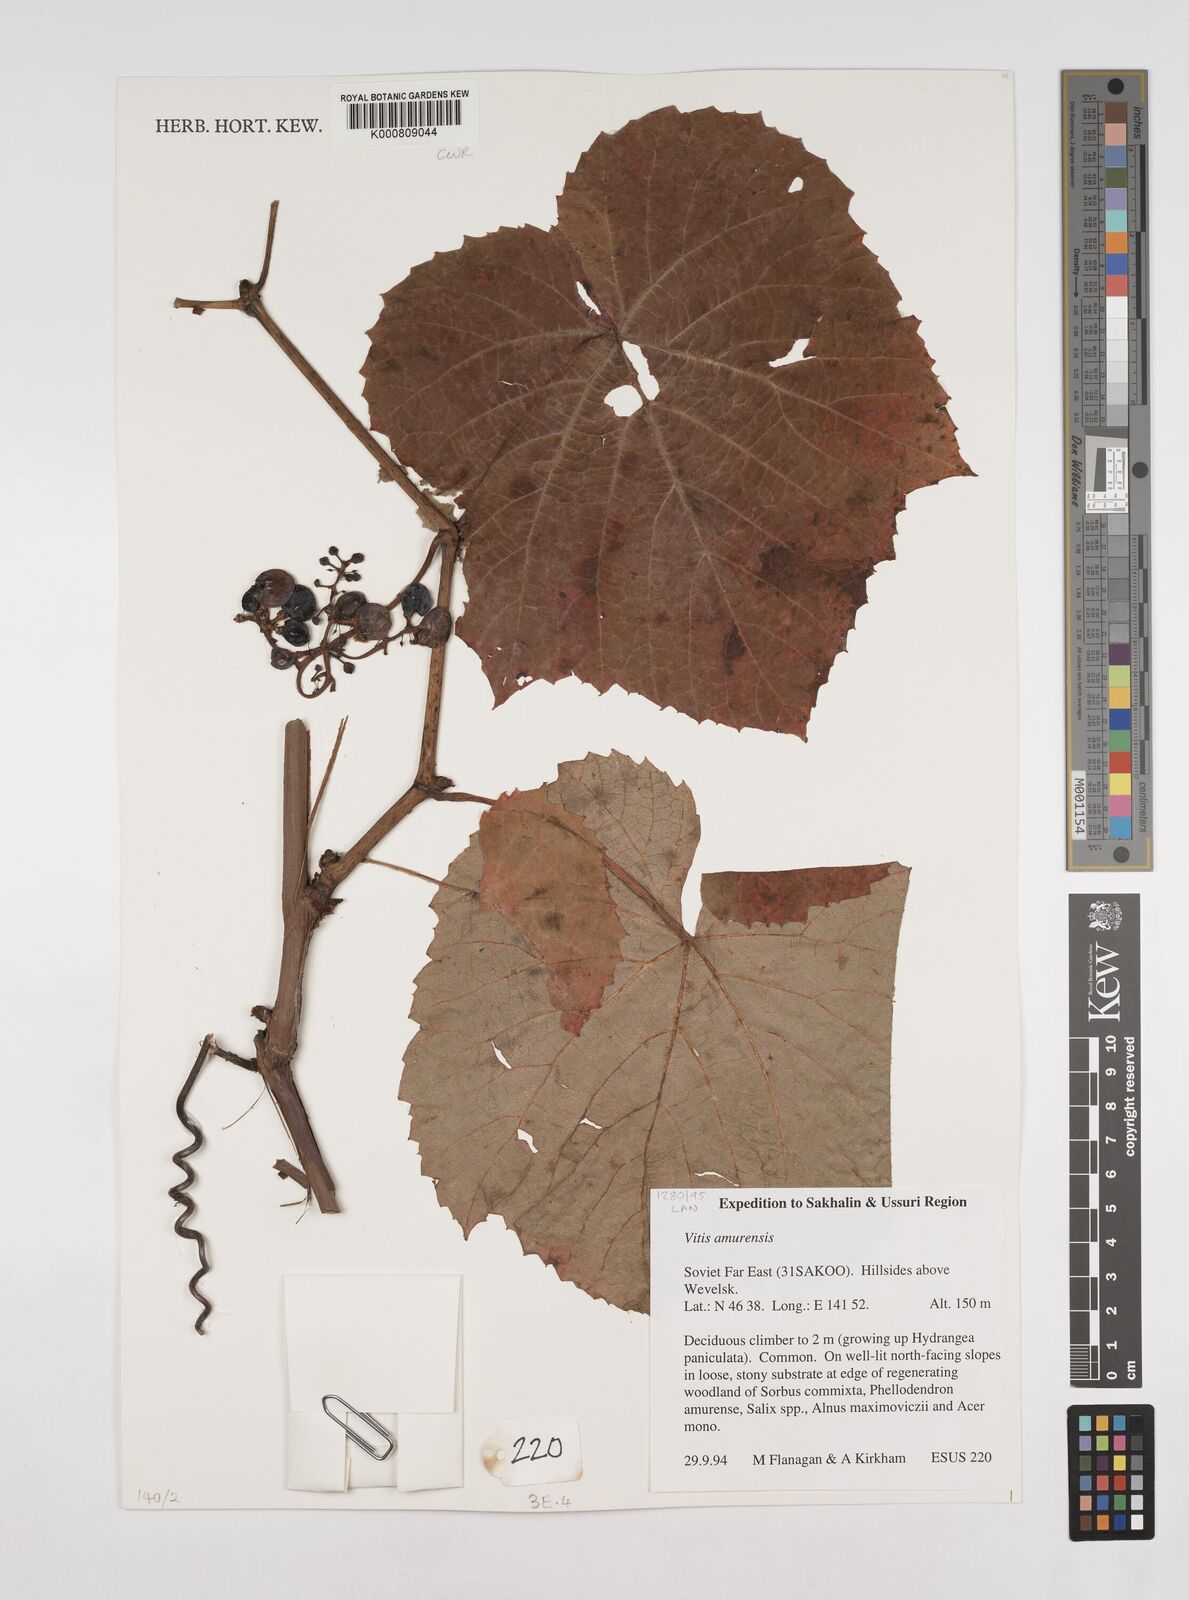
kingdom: Plantae
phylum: Tracheophyta
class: Magnoliopsida
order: Vitales
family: Vitaceae
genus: Vitis
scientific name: Vitis amurensis
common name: Amur grape
